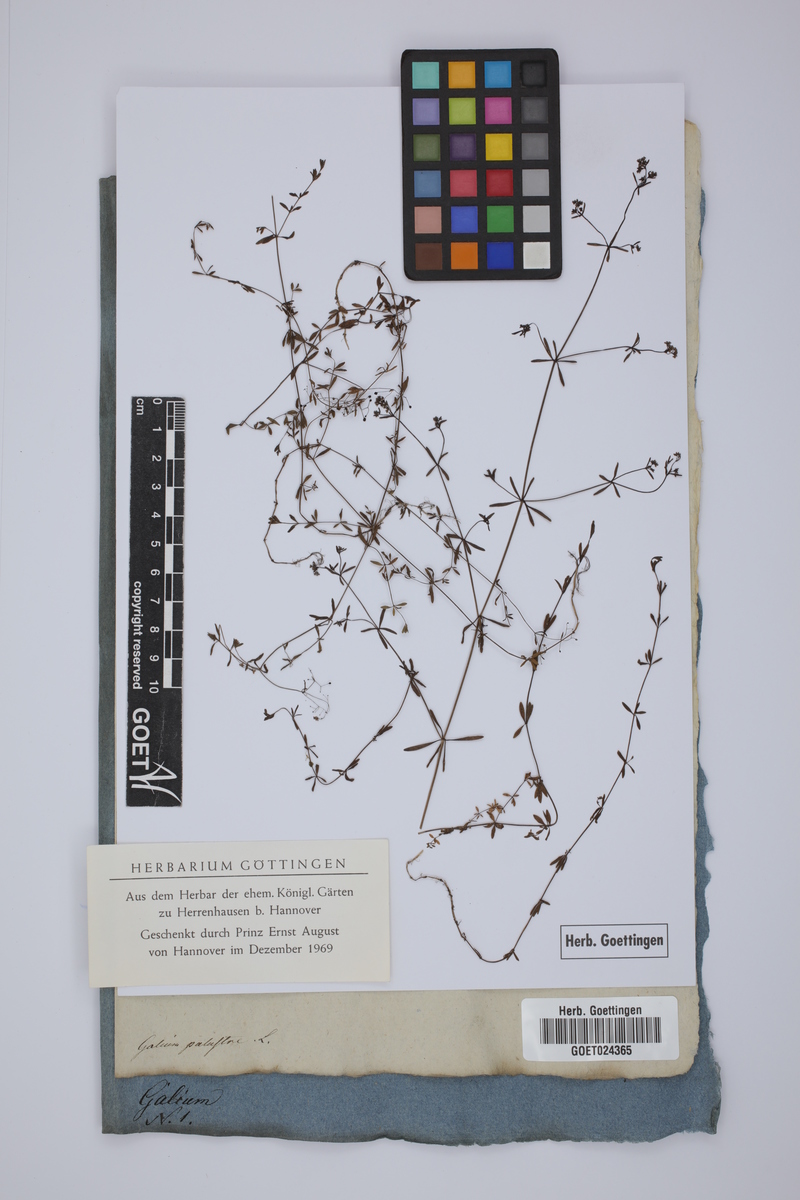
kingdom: Plantae
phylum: Tracheophyta
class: Magnoliopsida
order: Gentianales
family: Rubiaceae
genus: Galium
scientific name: Galium palustre
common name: Common marsh-bedstraw
